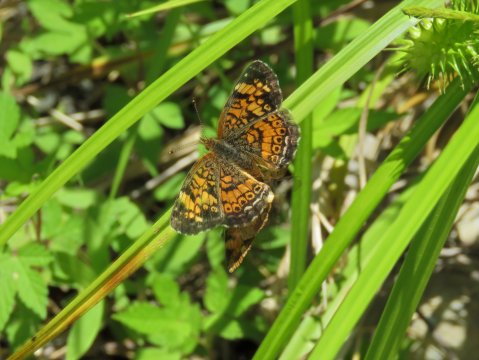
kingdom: Animalia
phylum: Arthropoda
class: Insecta
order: Lepidoptera
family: Nymphalidae
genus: Phyciodes
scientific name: Phyciodes tharos
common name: Pearl Crescent
